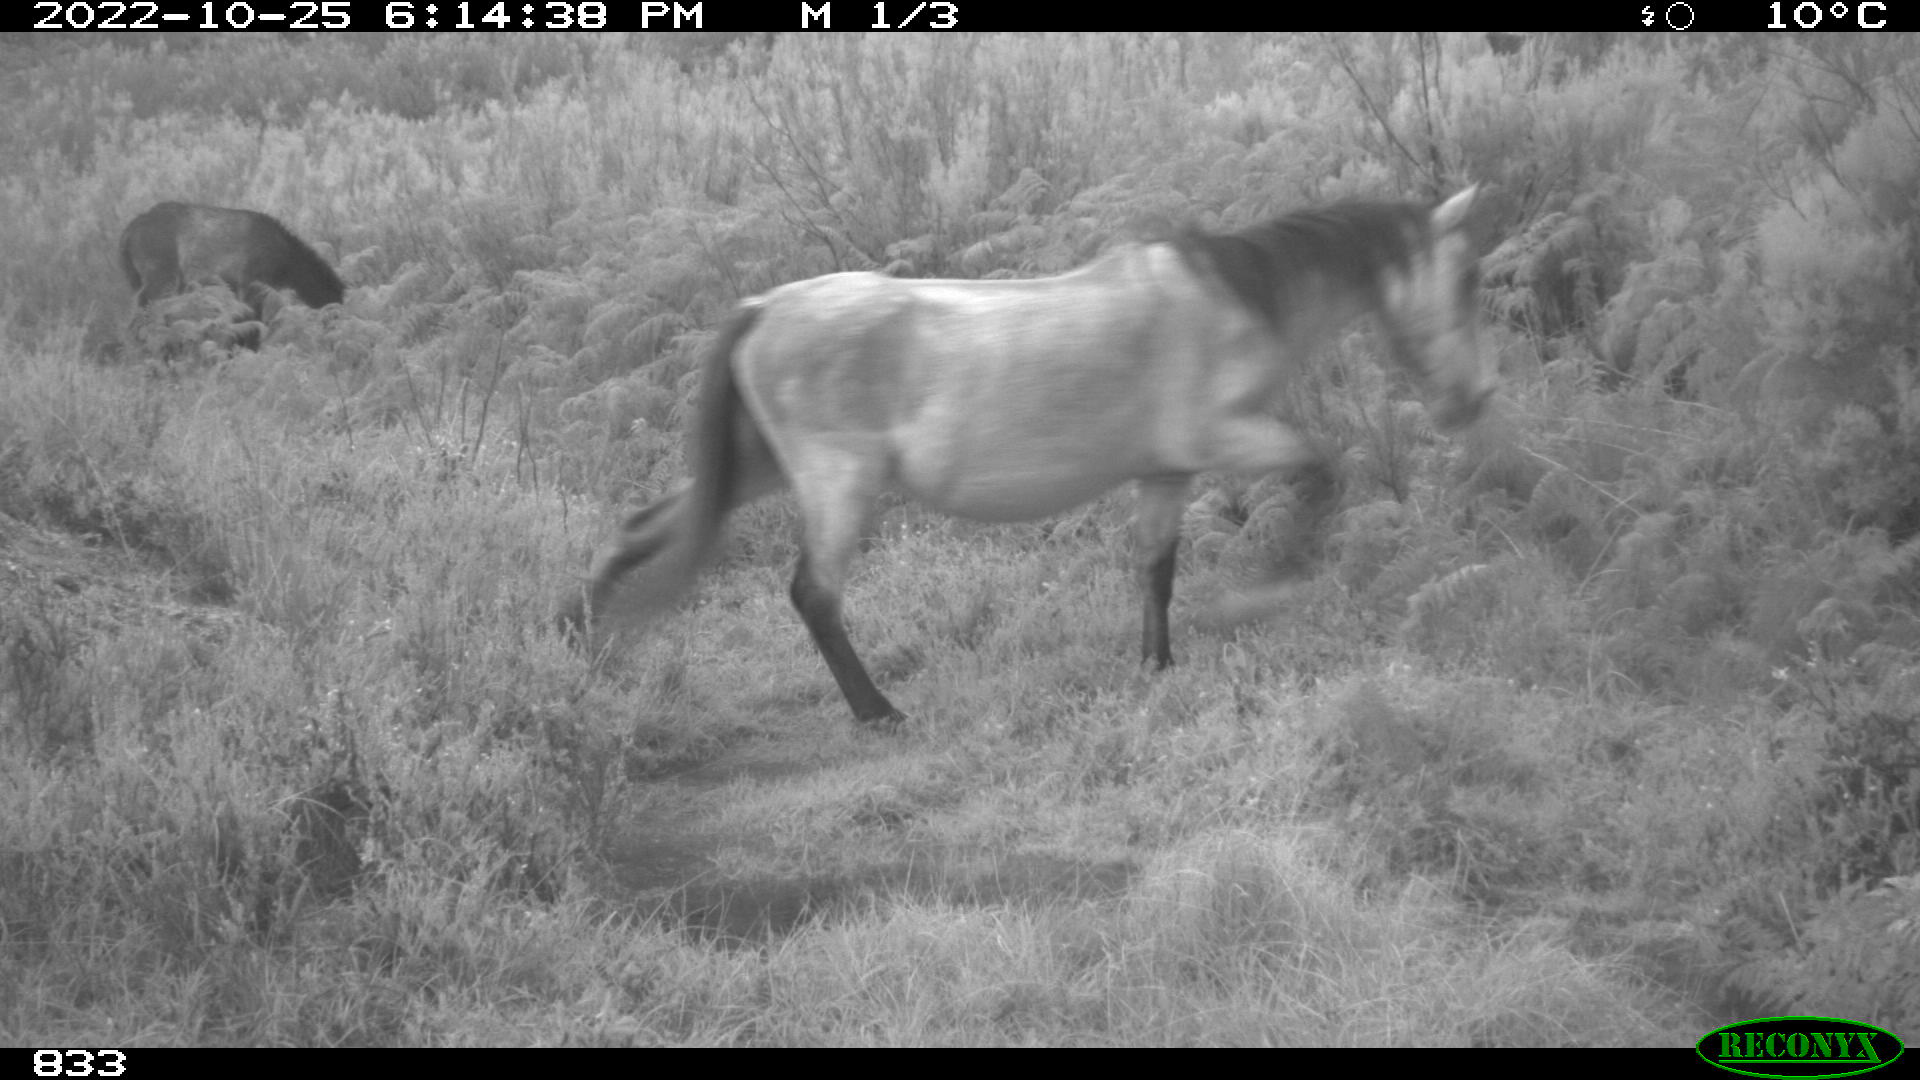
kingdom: Animalia
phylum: Chordata
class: Mammalia
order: Perissodactyla
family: Equidae
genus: Equus
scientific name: Equus caballus
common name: Horse
